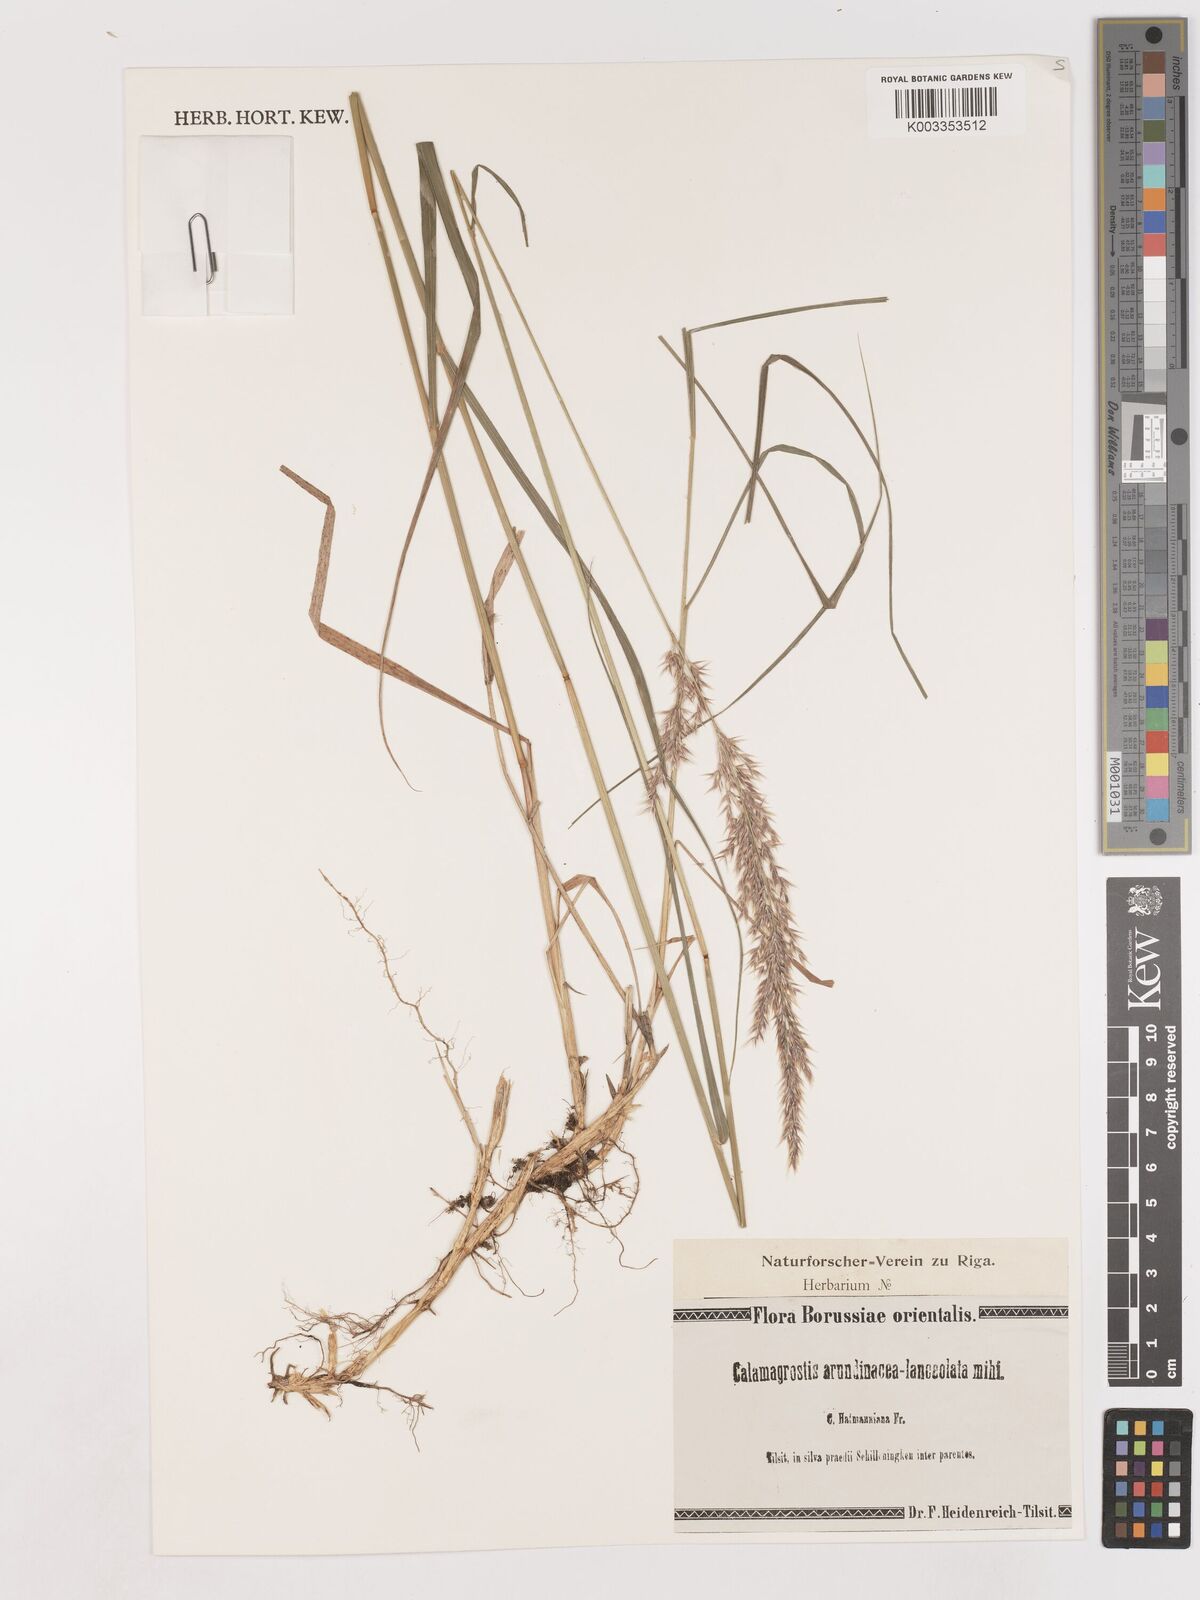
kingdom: Plantae
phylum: Tracheophyta
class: Liliopsida
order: Poales
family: Poaceae
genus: Calamagrostis
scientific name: Calamagrostis
